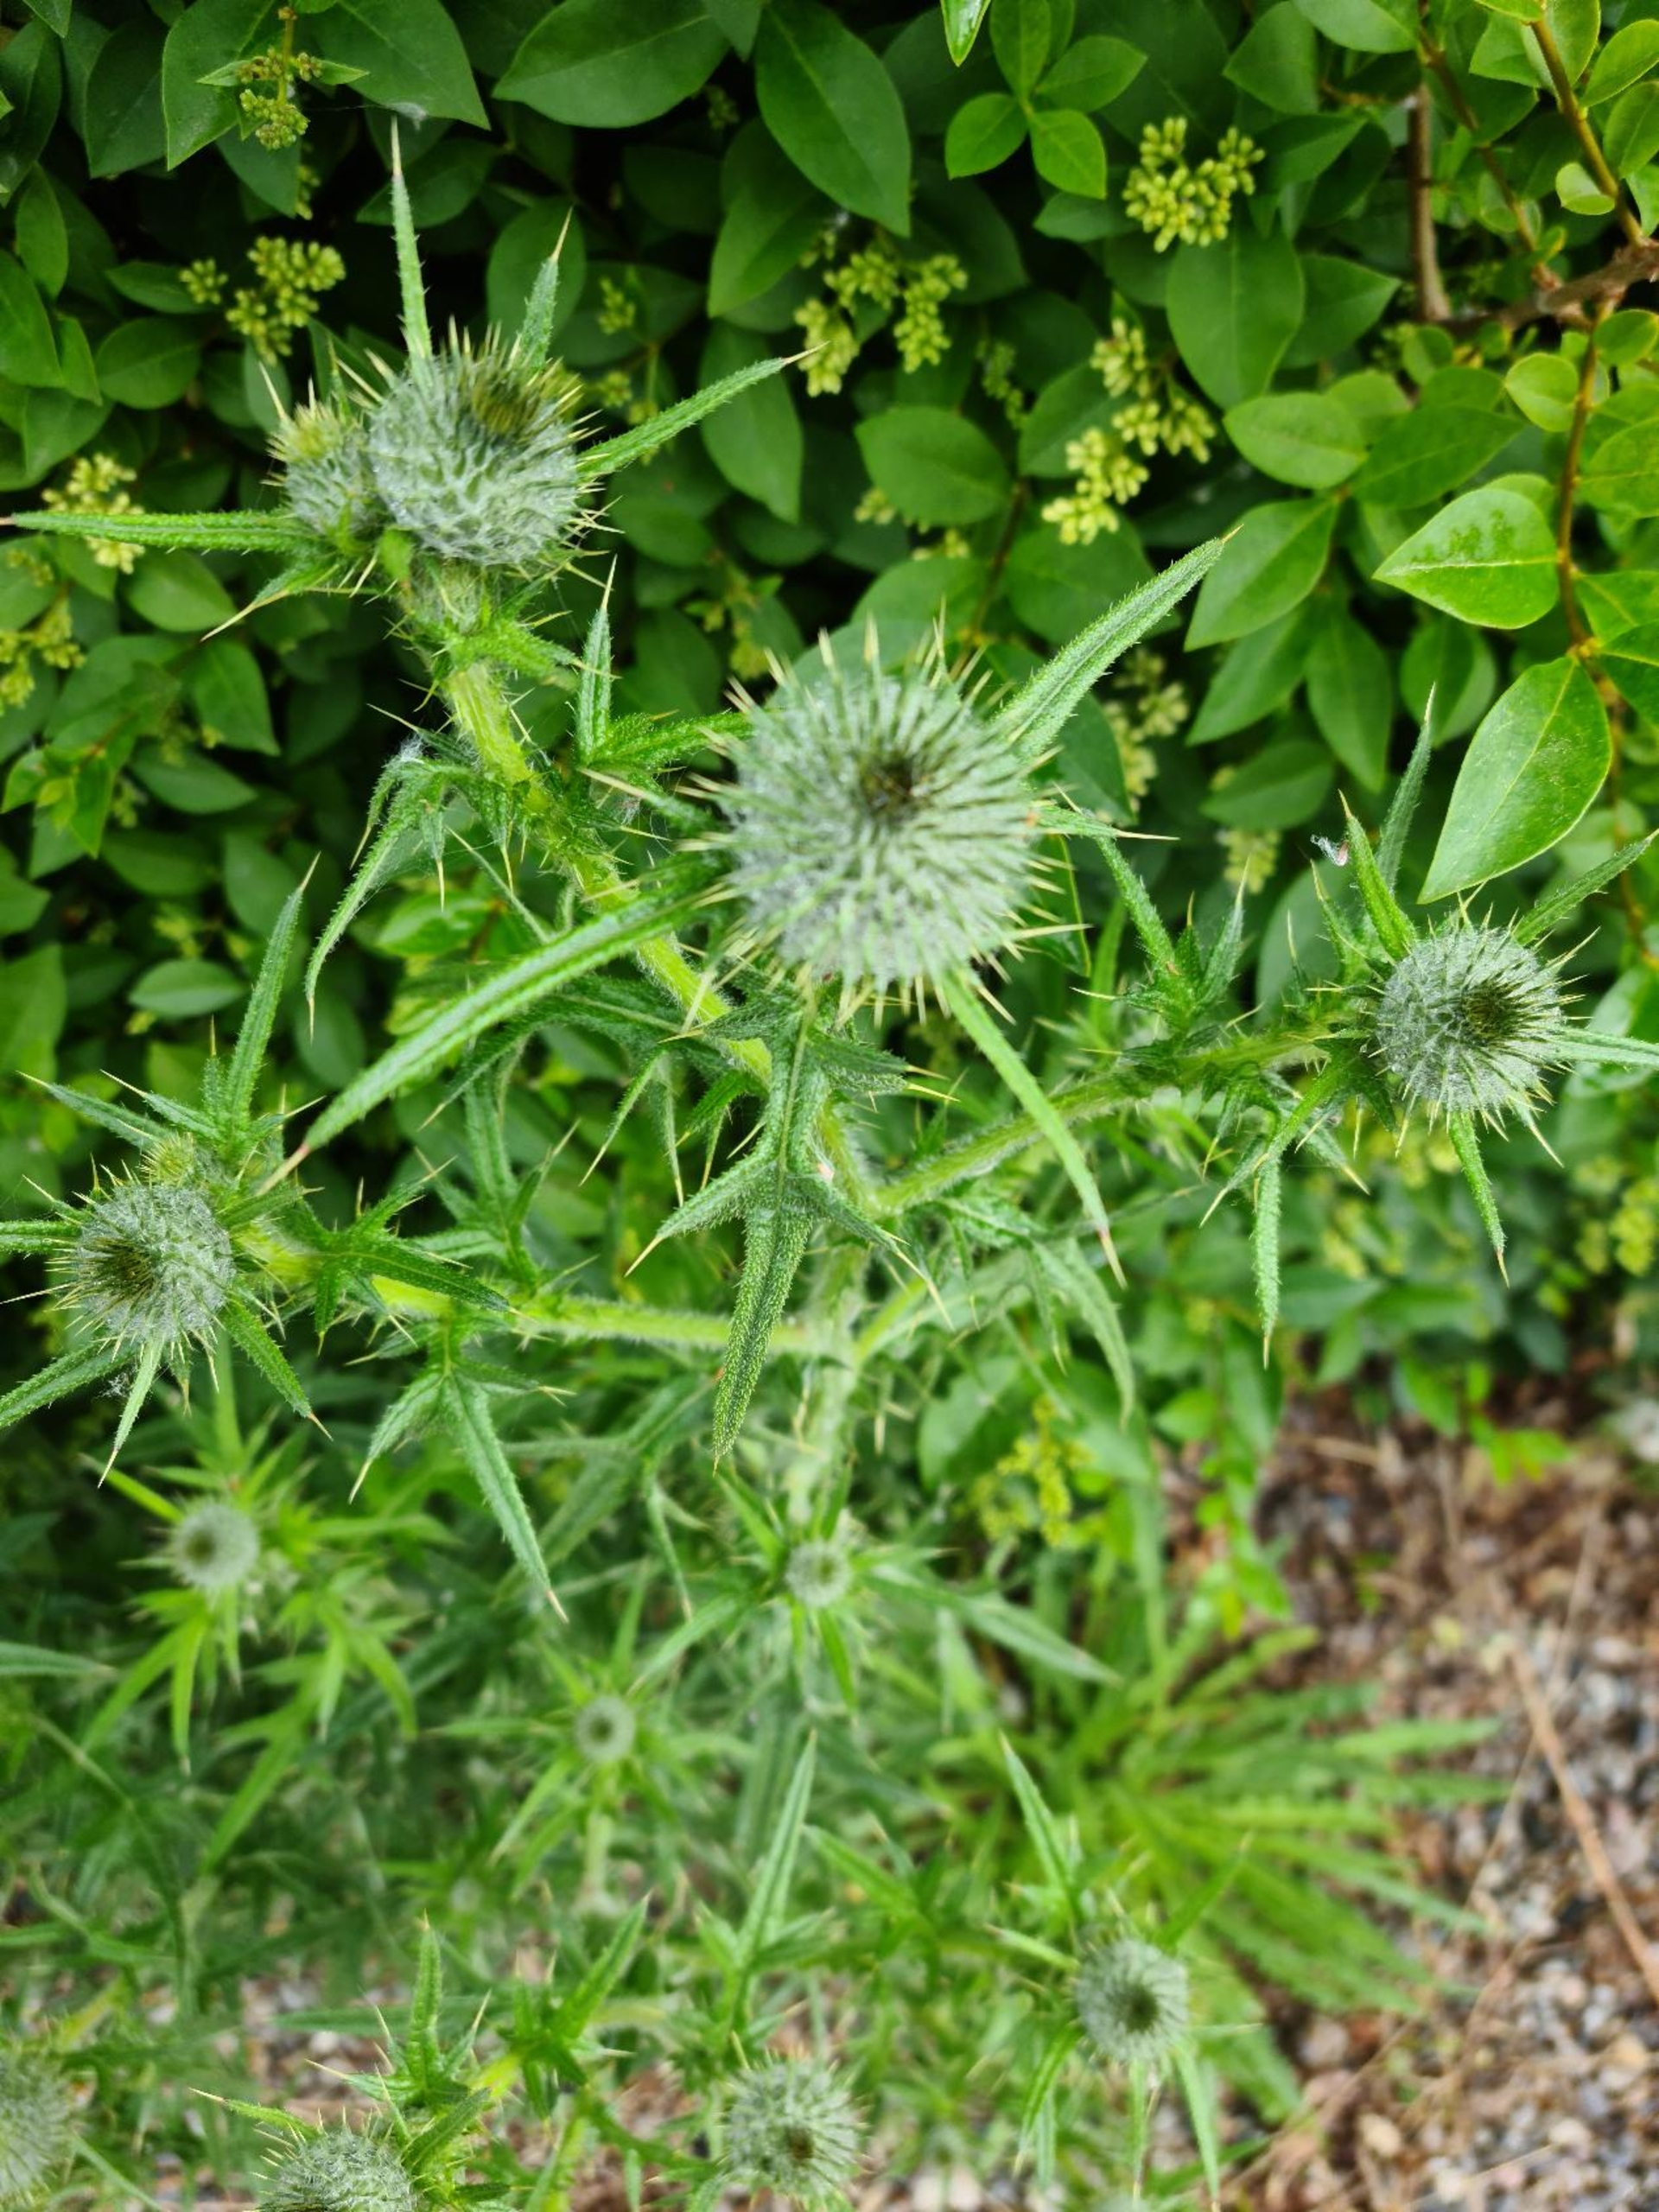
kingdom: Plantae
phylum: Tracheophyta
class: Magnoliopsida
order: Asterales
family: Asteraceae
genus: Cirsium
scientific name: Cirsium vulgare
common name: Horse-tidsel
